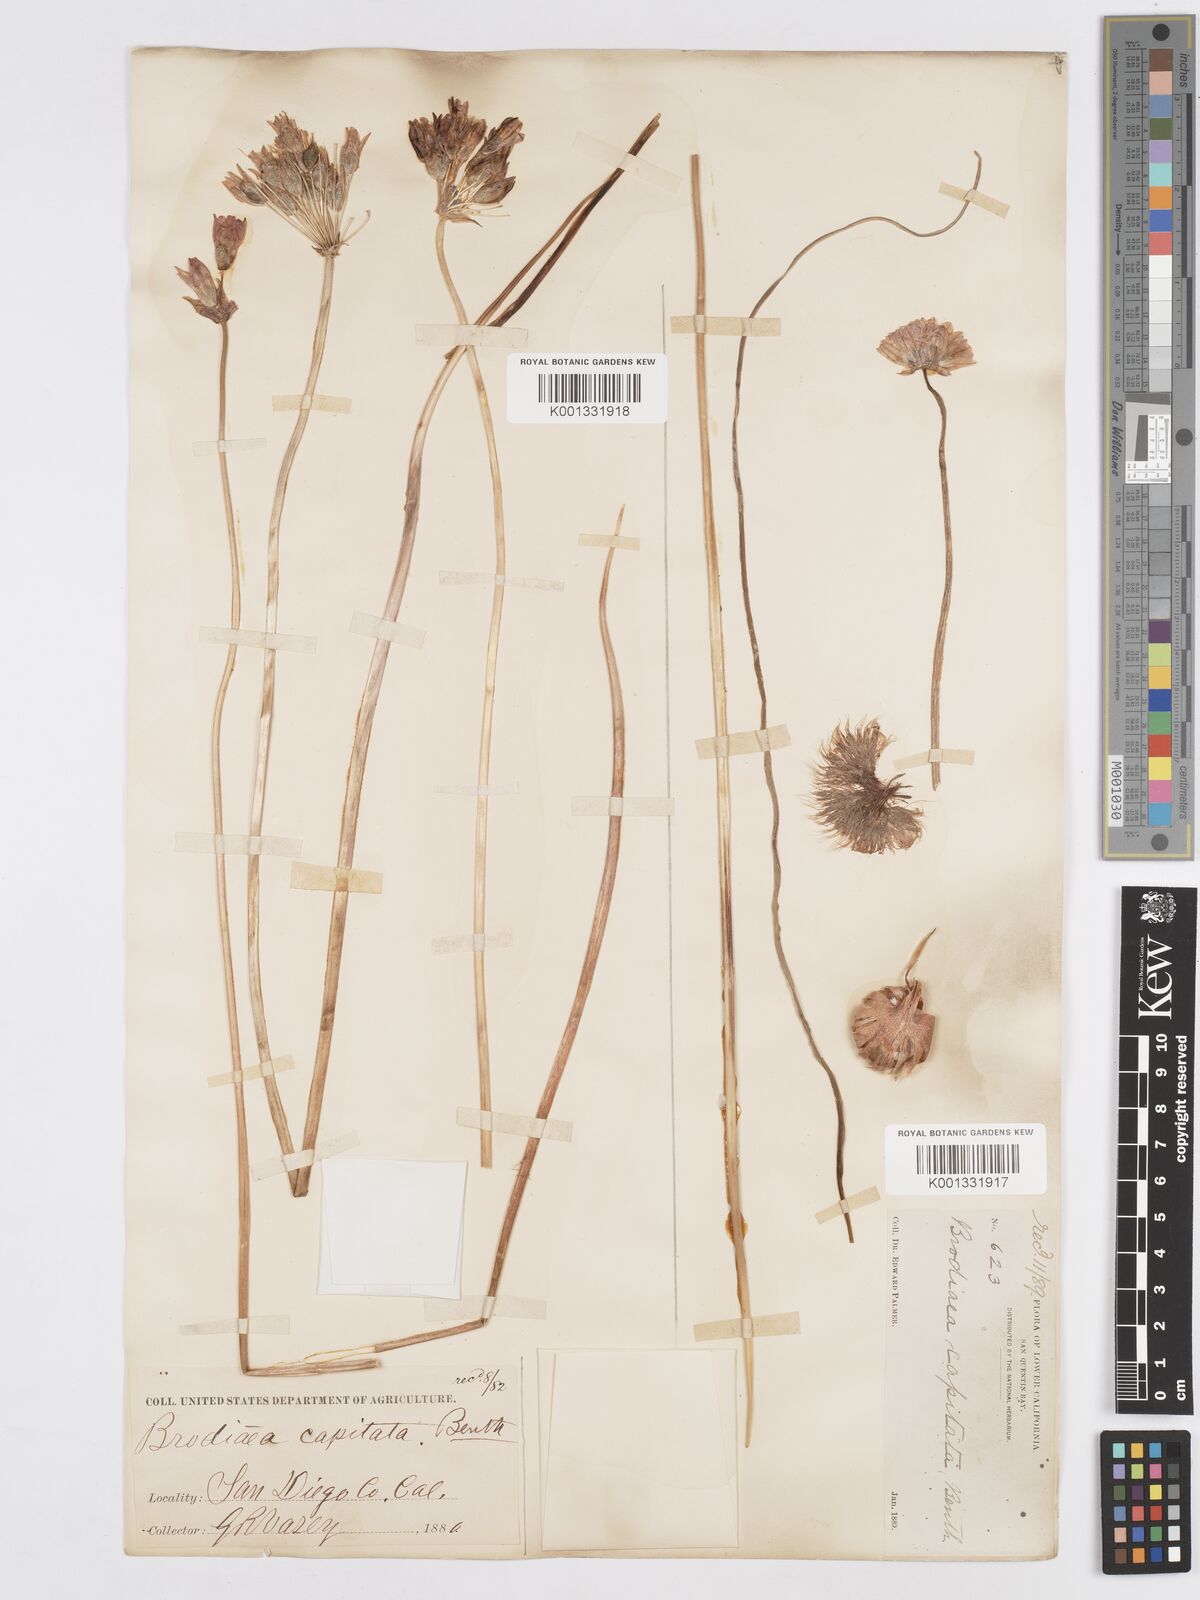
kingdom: Plantae
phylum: Tracheophyta
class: Liliopsida
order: Asparagales
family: Asparagaceae
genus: Dichelostemma
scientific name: Dichelostemma congestum
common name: Fork-tooth ookow
